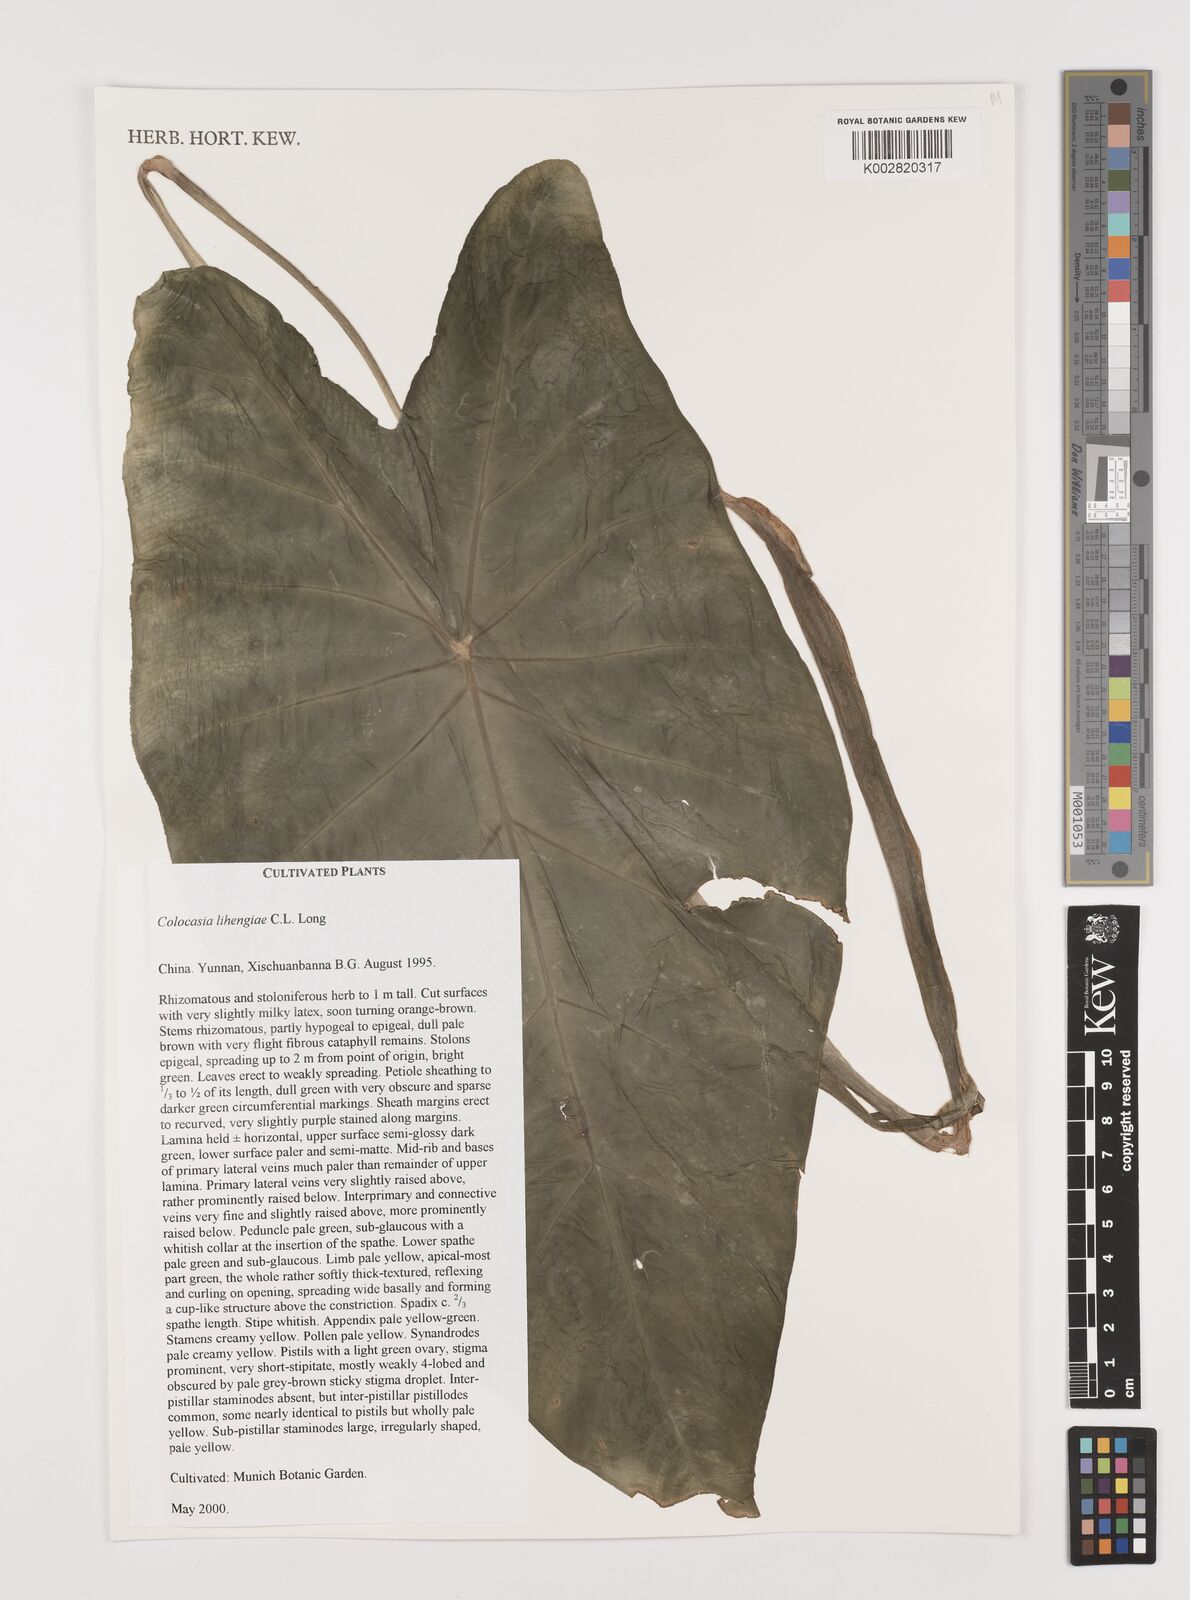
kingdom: Plantae
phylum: Tracheophyta
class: Liliopsida
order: Alismatales
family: Araceae
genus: Colocasia
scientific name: Colocasia lihengiae
